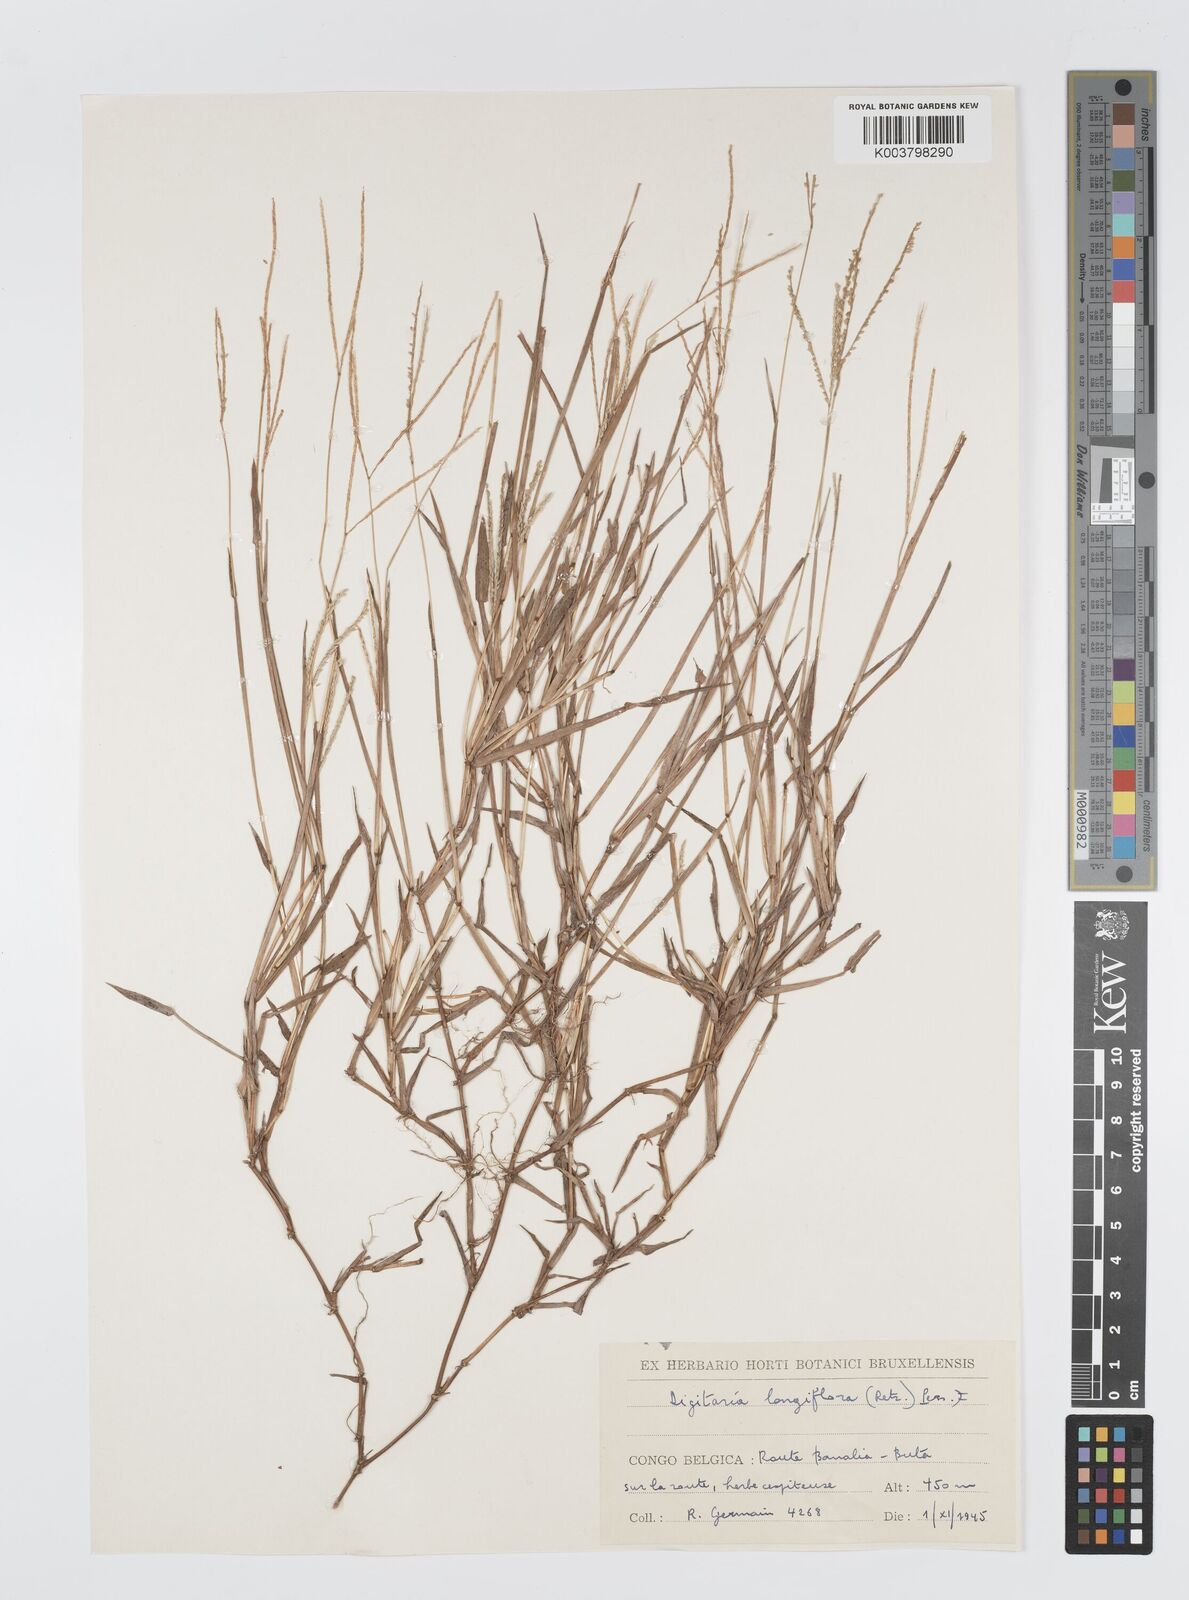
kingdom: Plantae
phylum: Tracheophyta
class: Liliopsida
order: Poales
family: Poaceae
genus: Digitaria
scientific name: Digitaria longiflora
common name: Wire crabgrass
